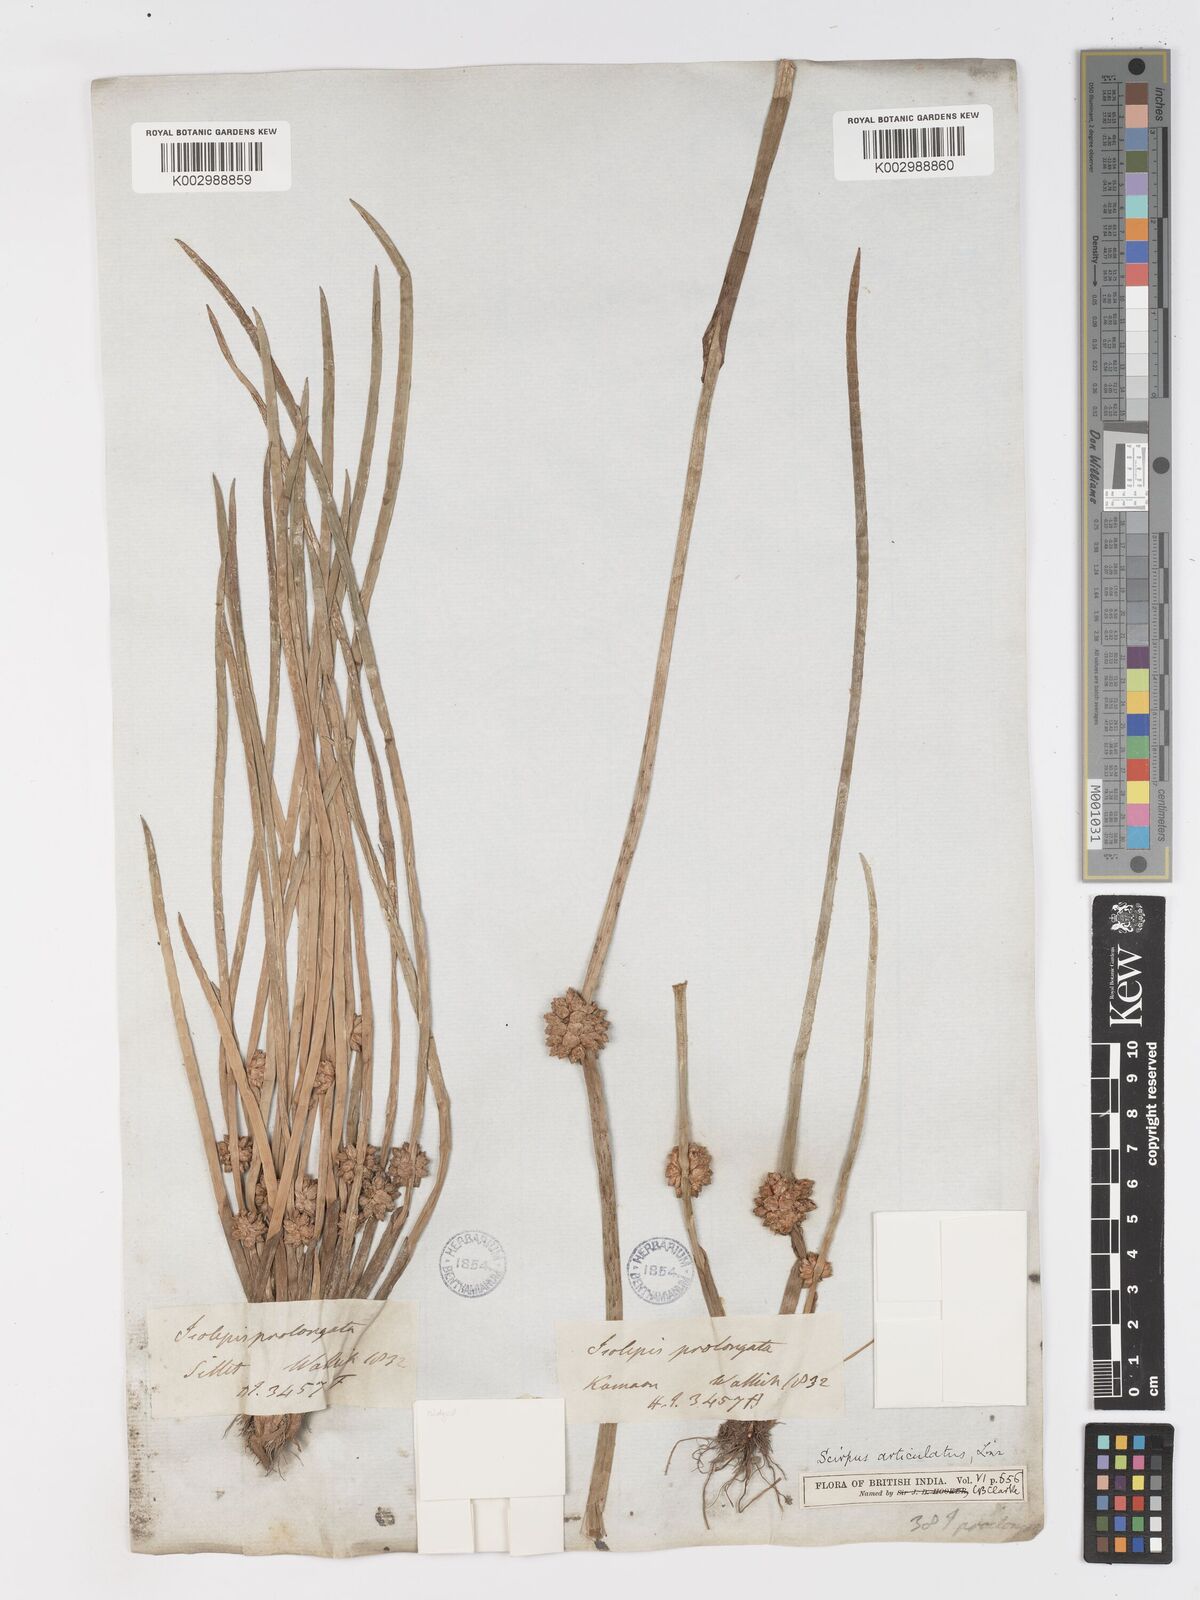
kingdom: Plantae
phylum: Tracheophyta
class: Liliopsida
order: Poales
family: Cyperaceae
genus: Schoenoplectiella
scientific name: Schoenoplectiella praelongata
